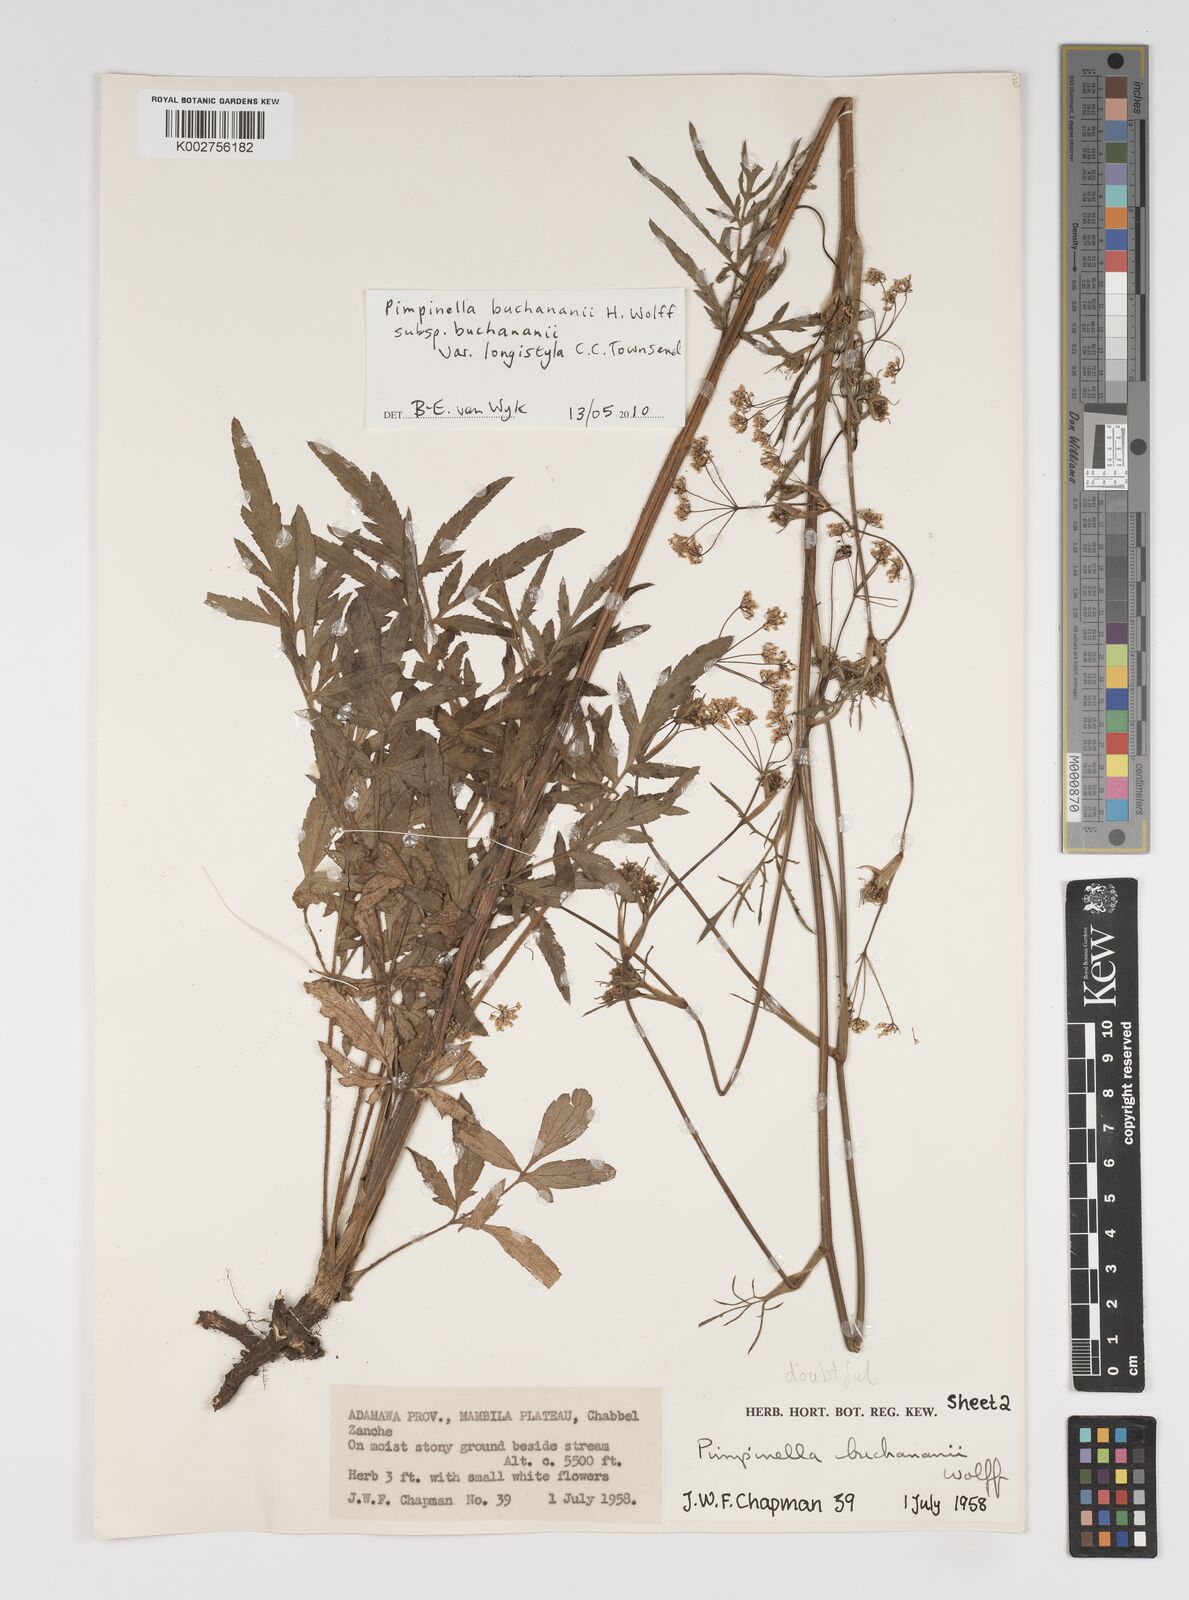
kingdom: Plantae
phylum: Tracheophyta
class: Magnoliopsida
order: Apiales
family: Apiaceae
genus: Pimpinella
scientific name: Pimpinella
